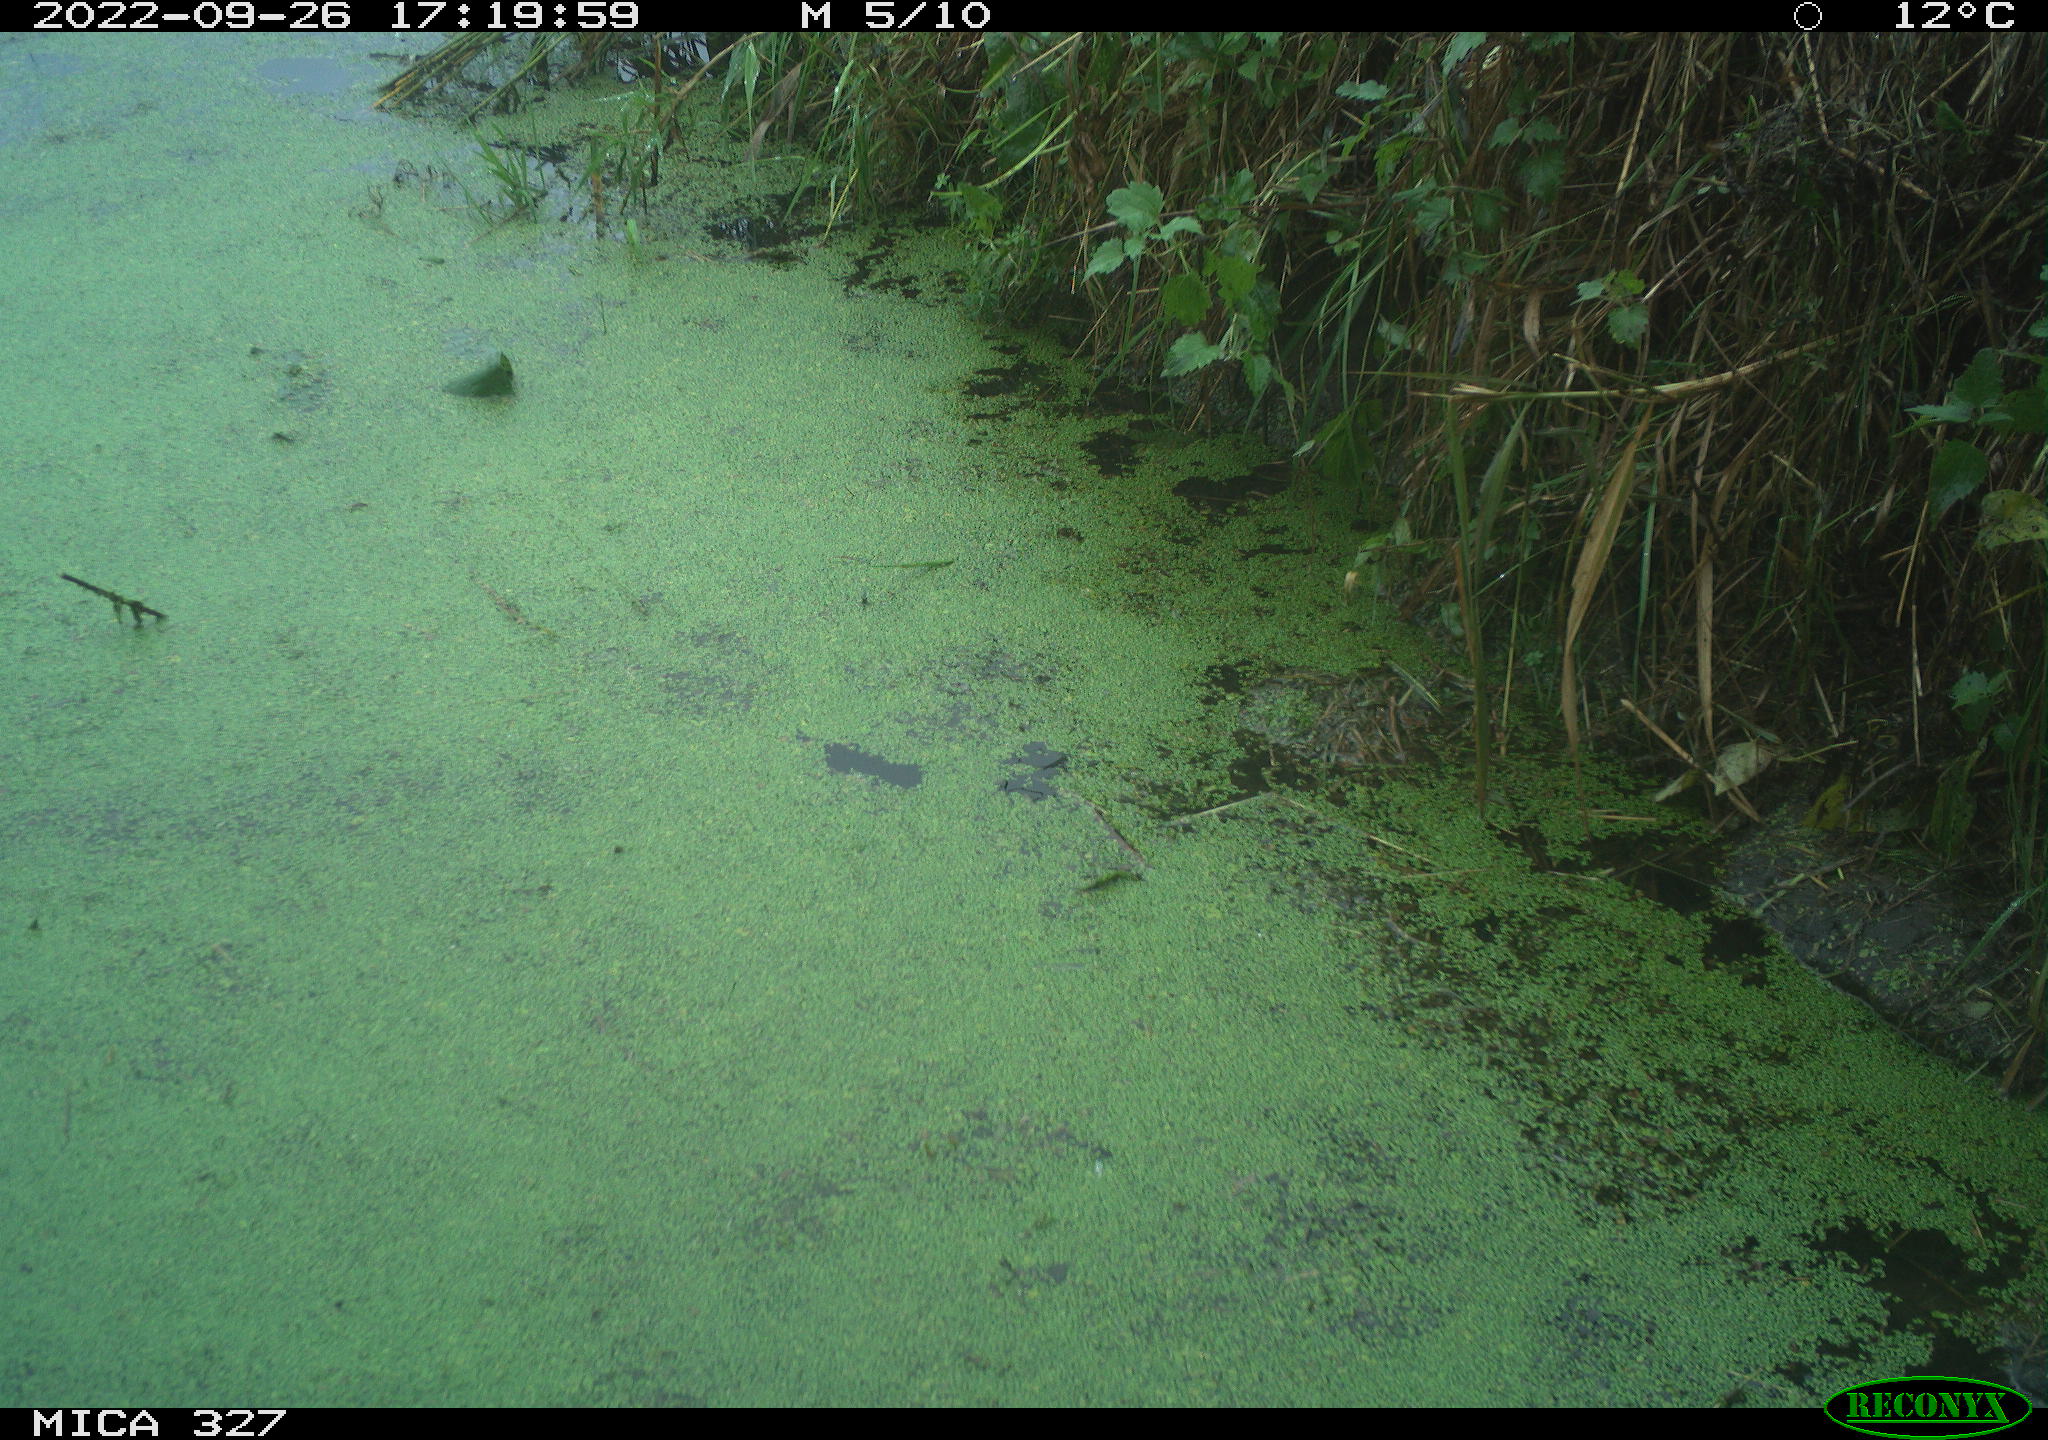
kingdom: Animalia
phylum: Chordata
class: Aves
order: Coraciiformes
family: Alcedinidae
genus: Alcedo
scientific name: Alcedo atthis
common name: Common kingfisher
